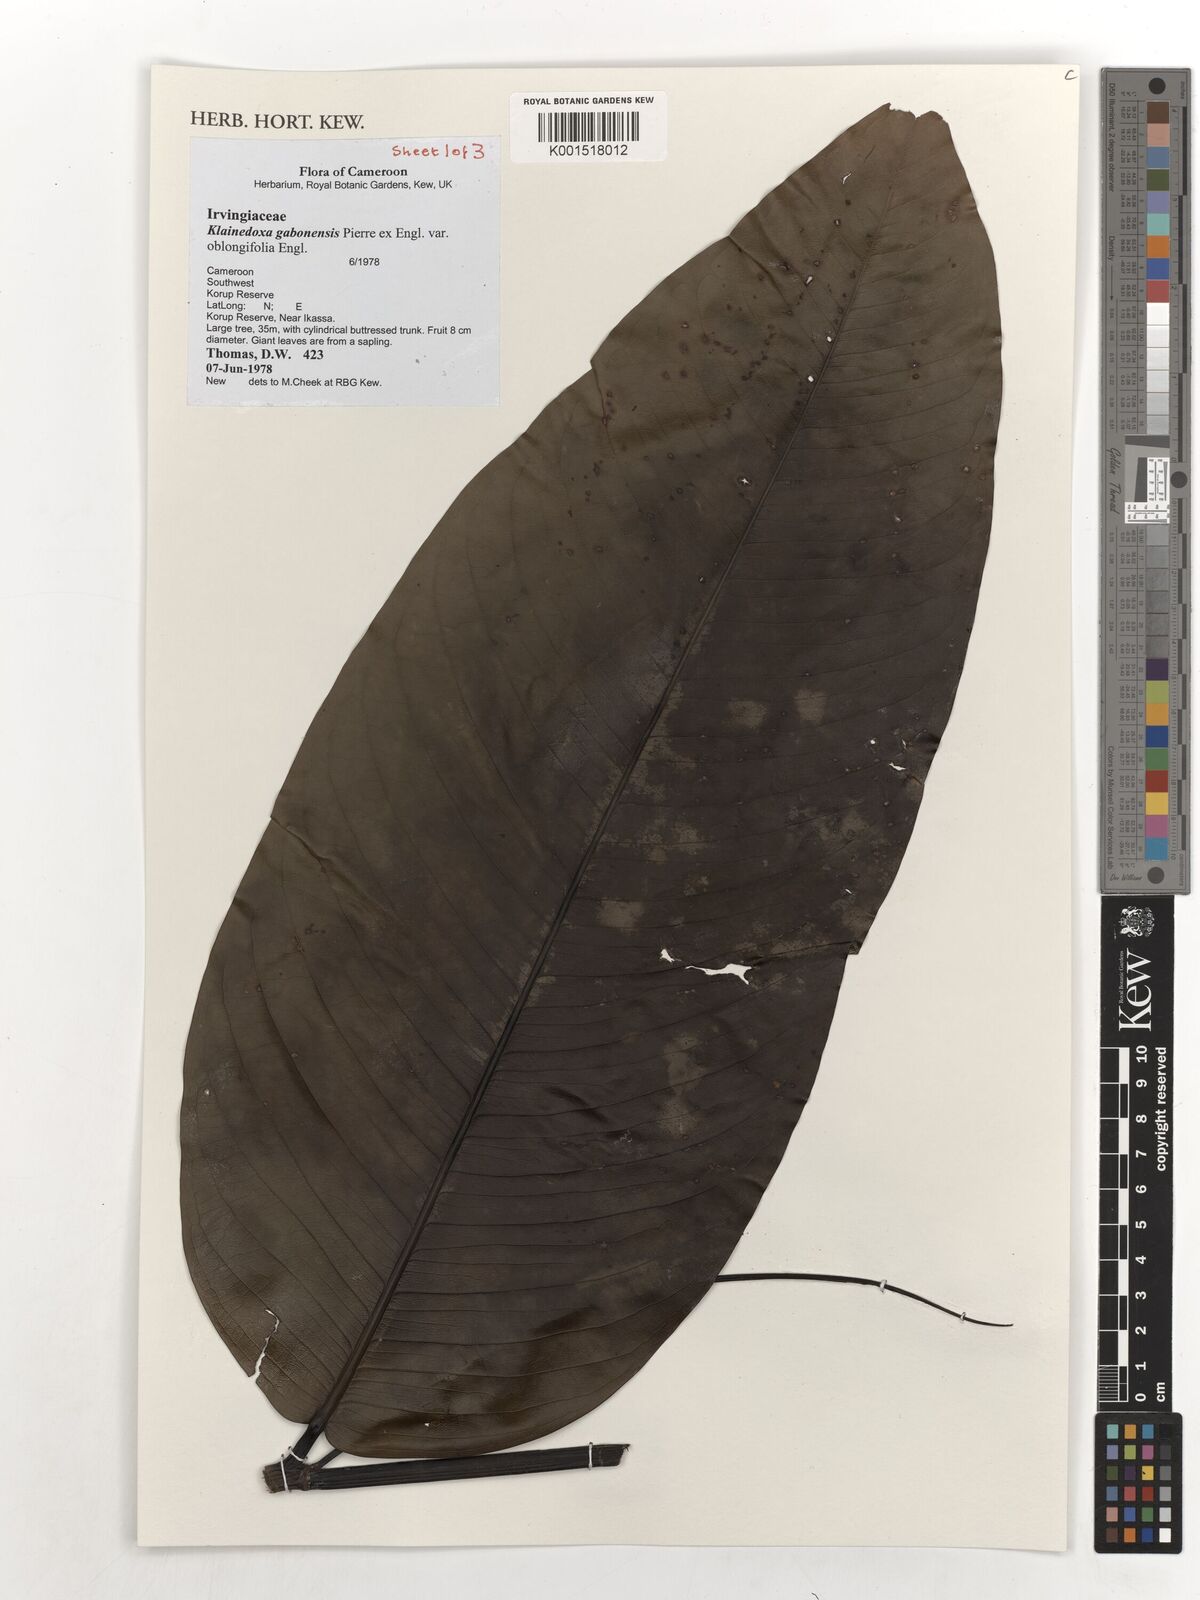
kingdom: Plantae
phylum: Tracheophyta
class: Magnoliopsida
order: Malpighiales
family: Irvingiaceae
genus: Klainedoxa
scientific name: Klainedoxa gabonensis
